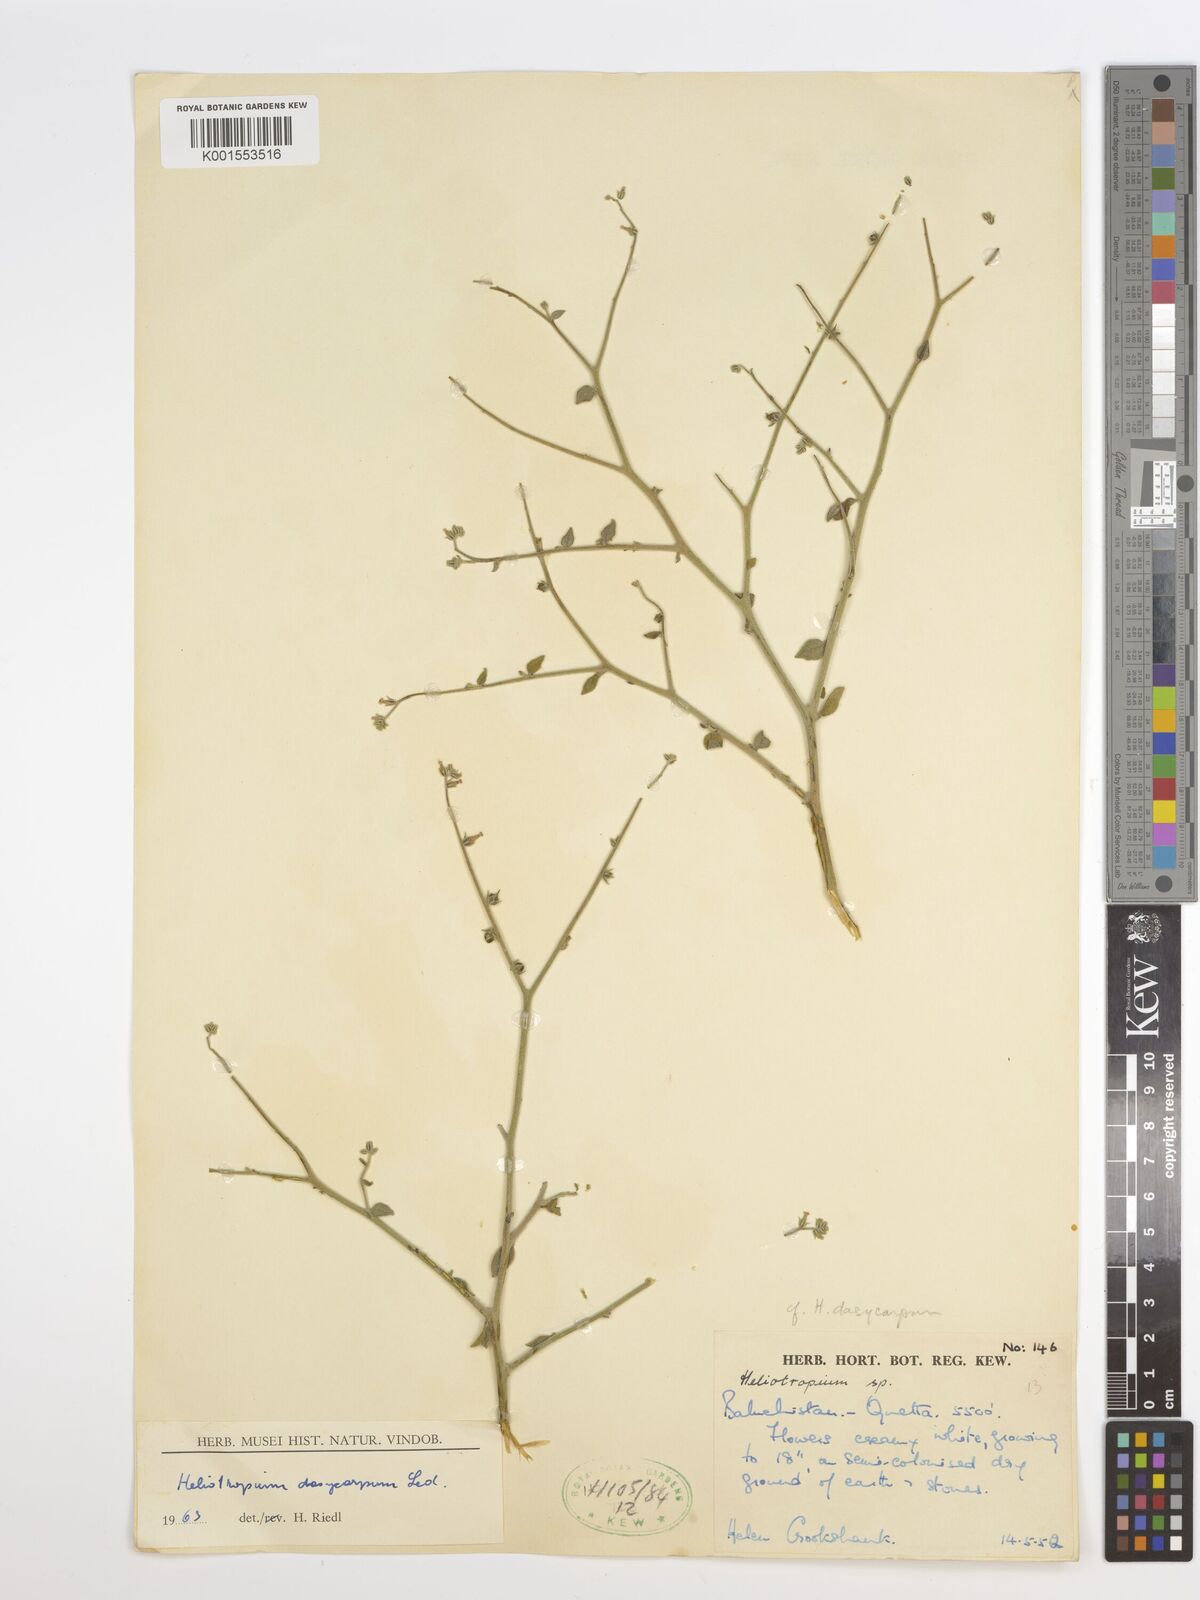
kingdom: Plantae
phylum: Tracheophyta
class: Magnoliopsida
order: Boraginales
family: Heliotropiaceae
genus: Heliotropium
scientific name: Heliotropium dasycarpum
